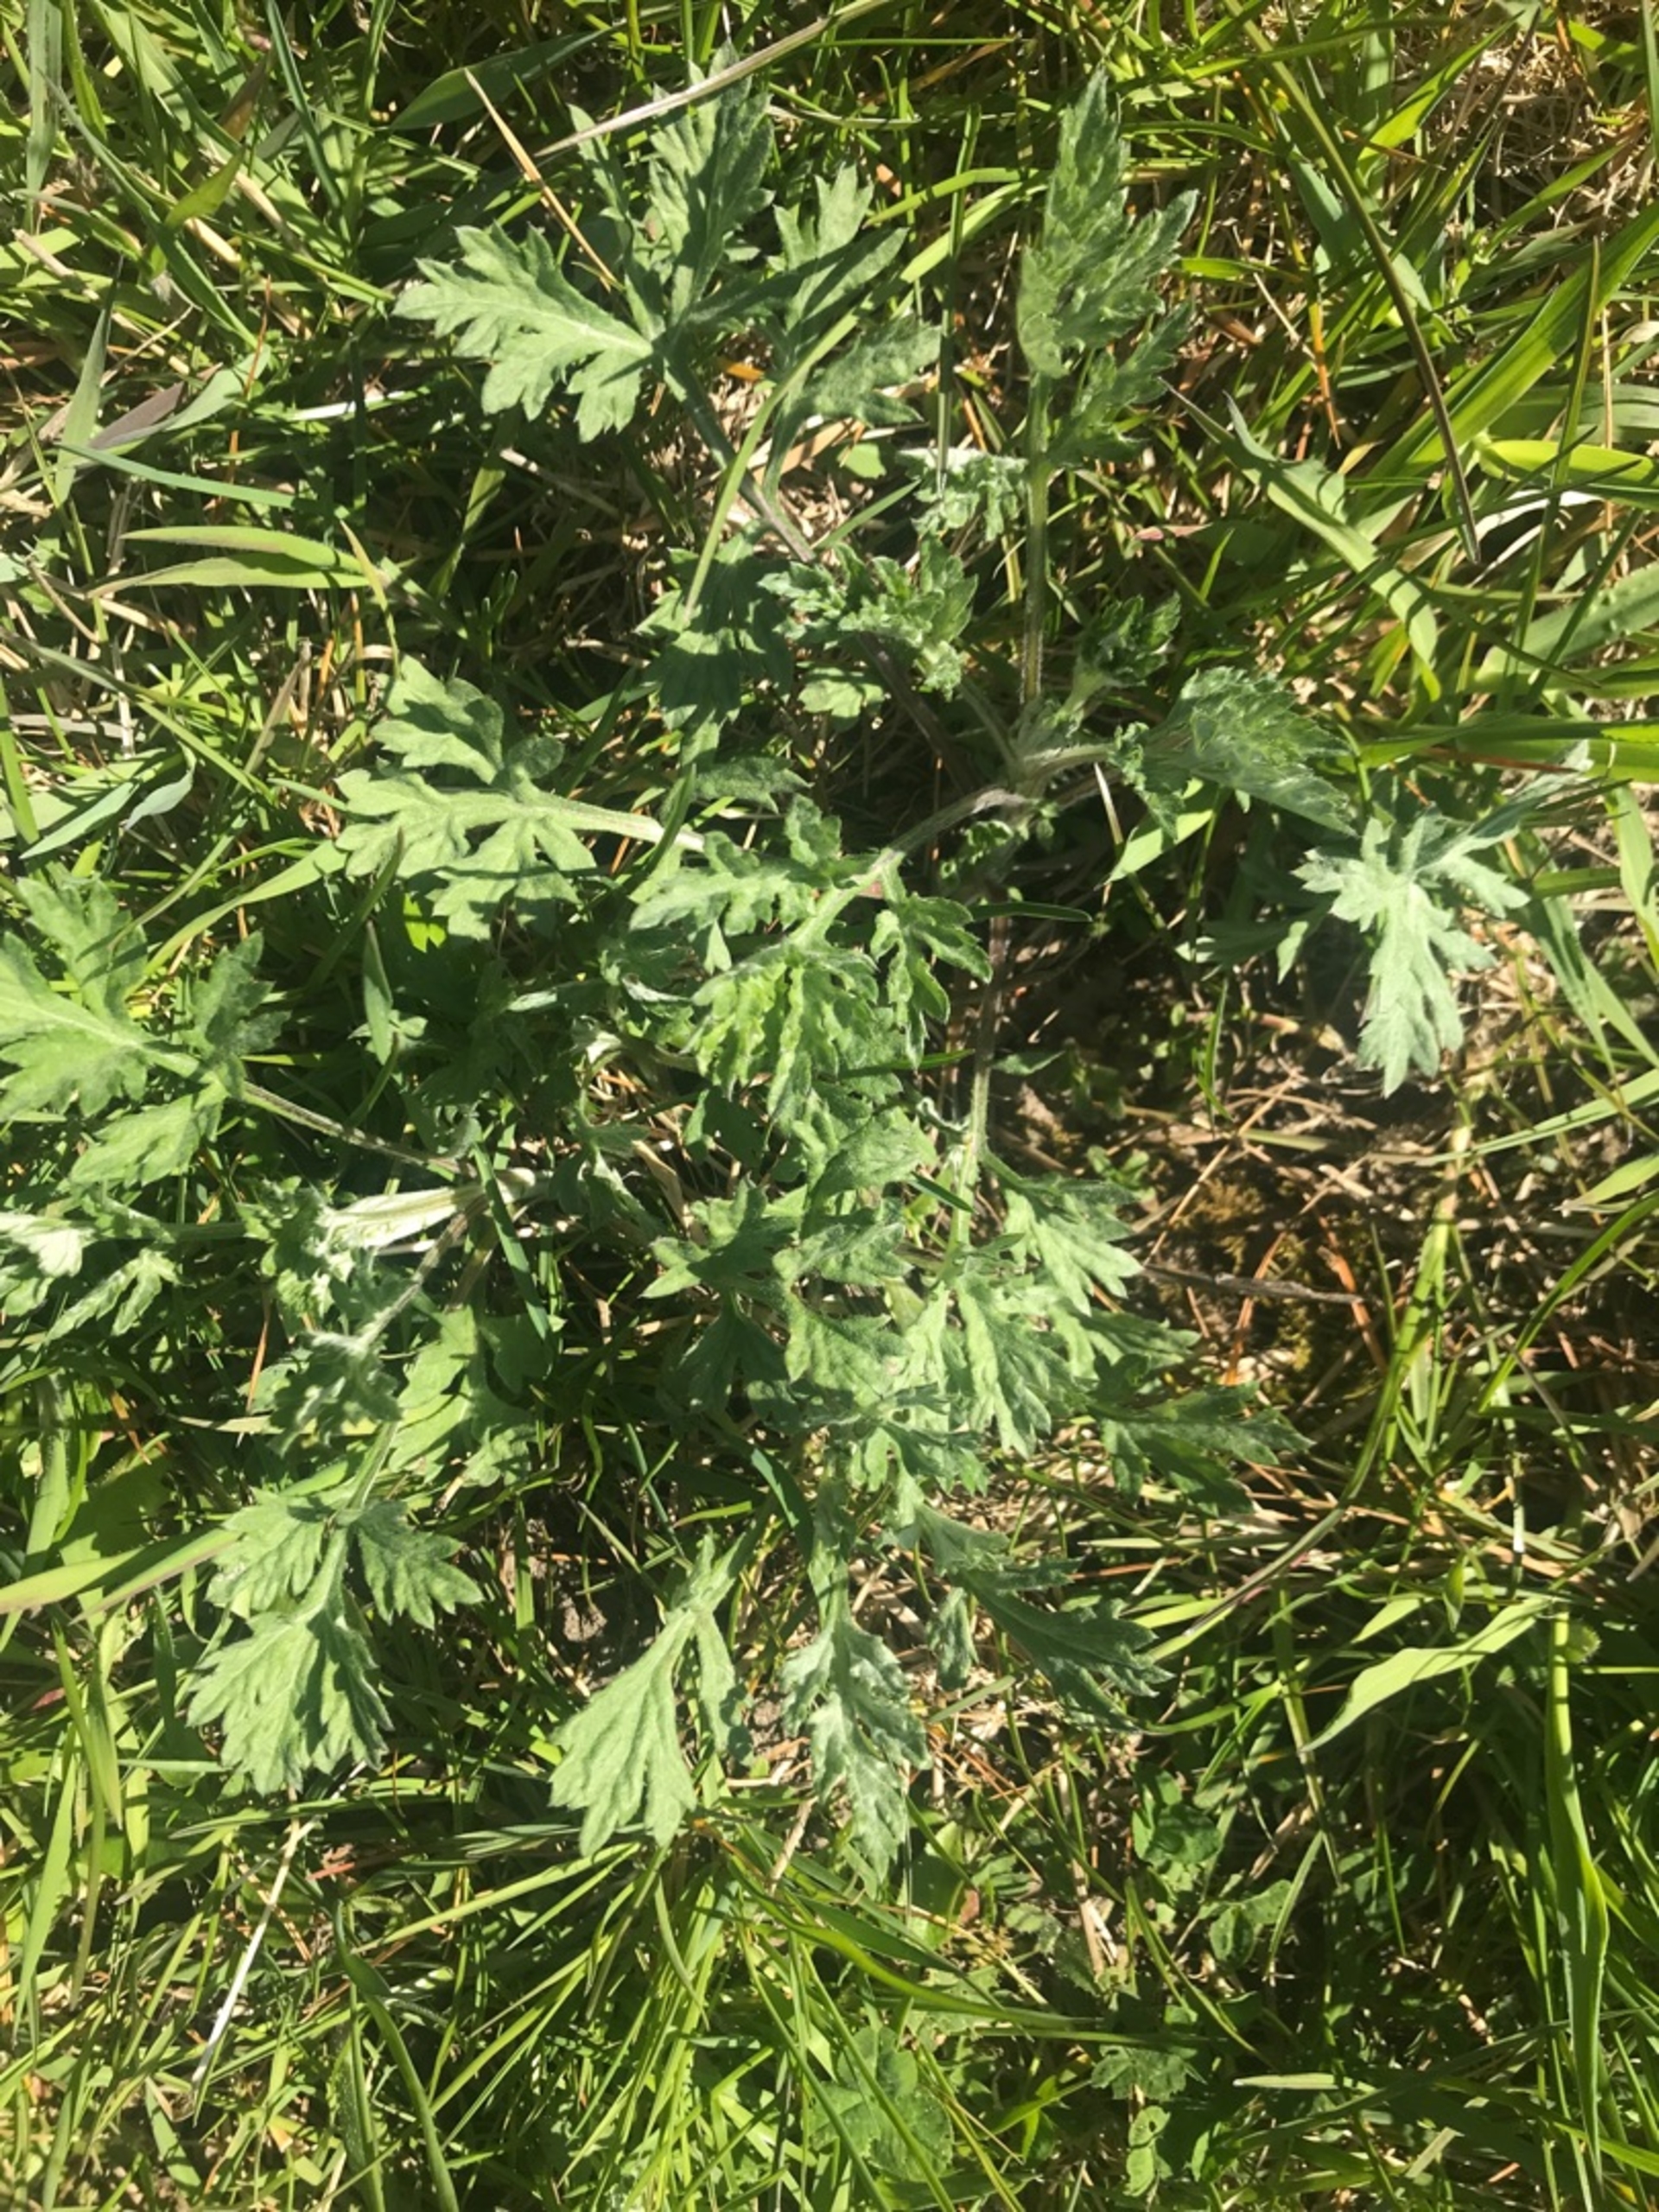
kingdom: Plantae
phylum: Tracheophyta
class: Magnoliopsida
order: Asterales
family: Asteraceae
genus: Artemisia
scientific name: Artemisia vulgaris
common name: Grå-bynke
